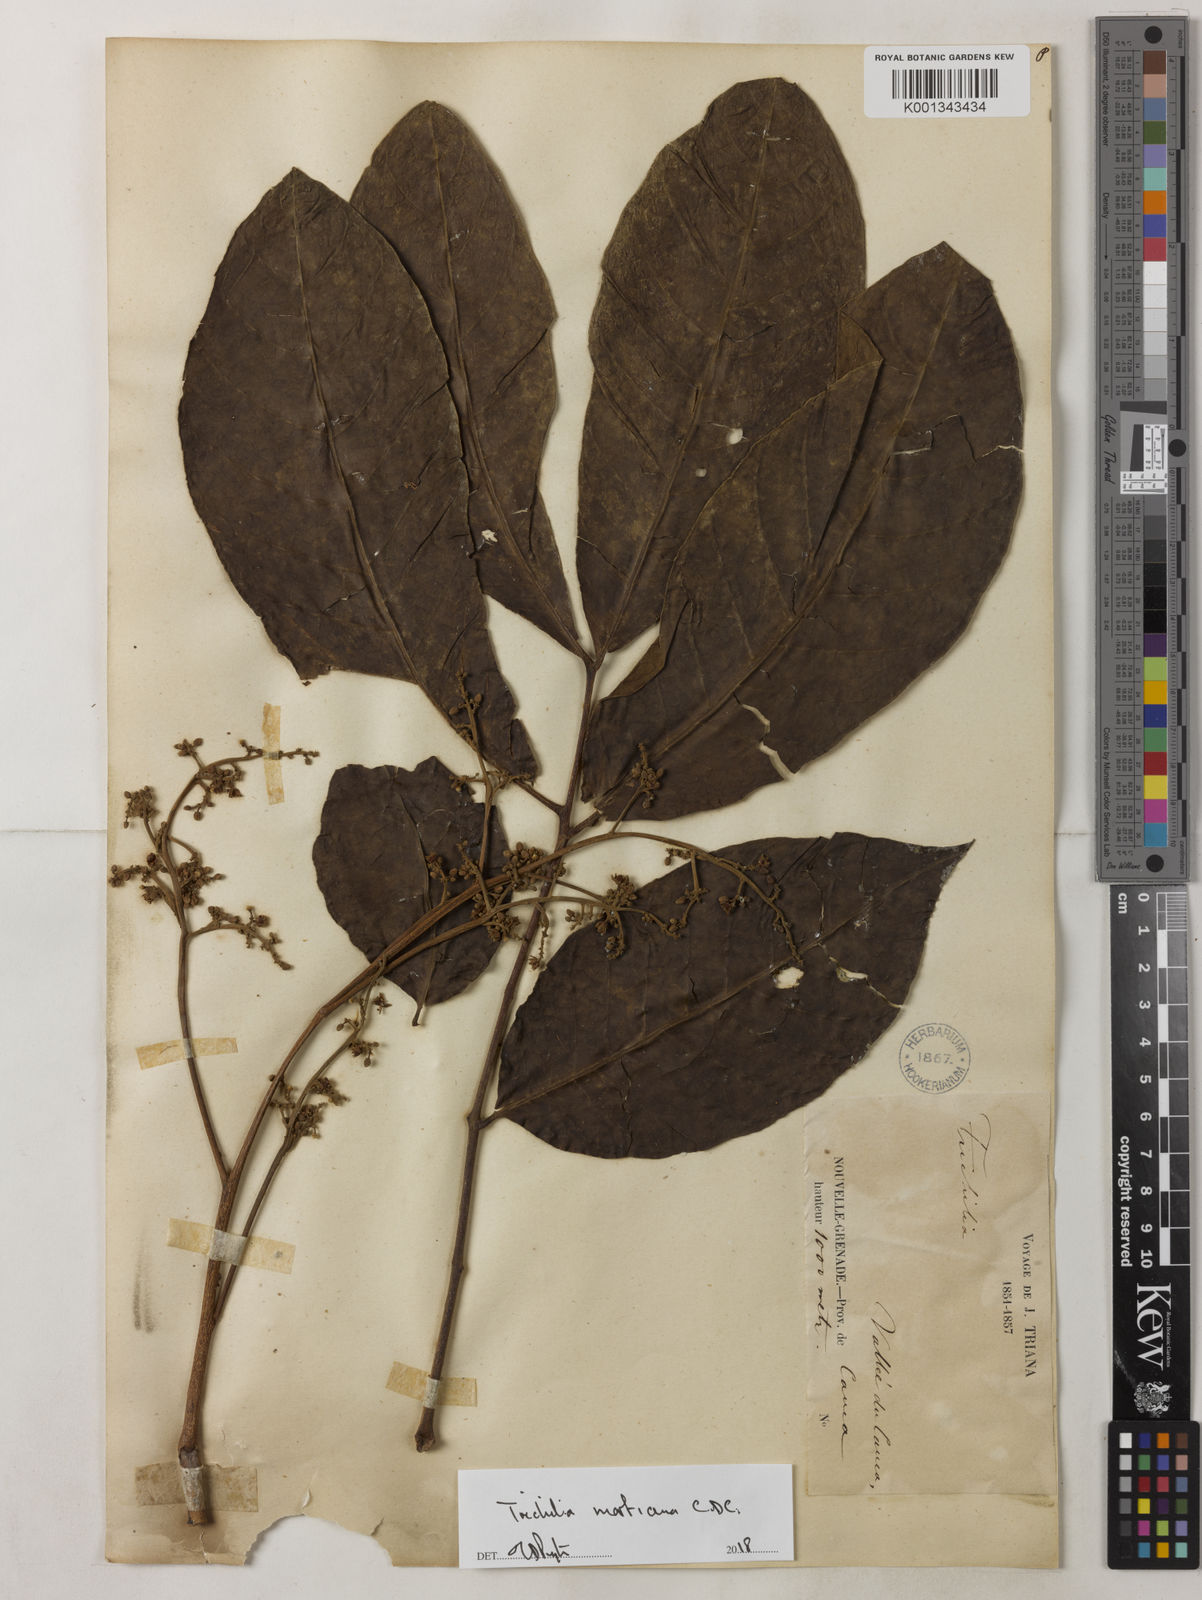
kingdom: Plantae
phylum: Tracheophyta
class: Magnoliopsida
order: Sapindales
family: Meliaceae
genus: Trichilia
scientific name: Trichilia martiana
